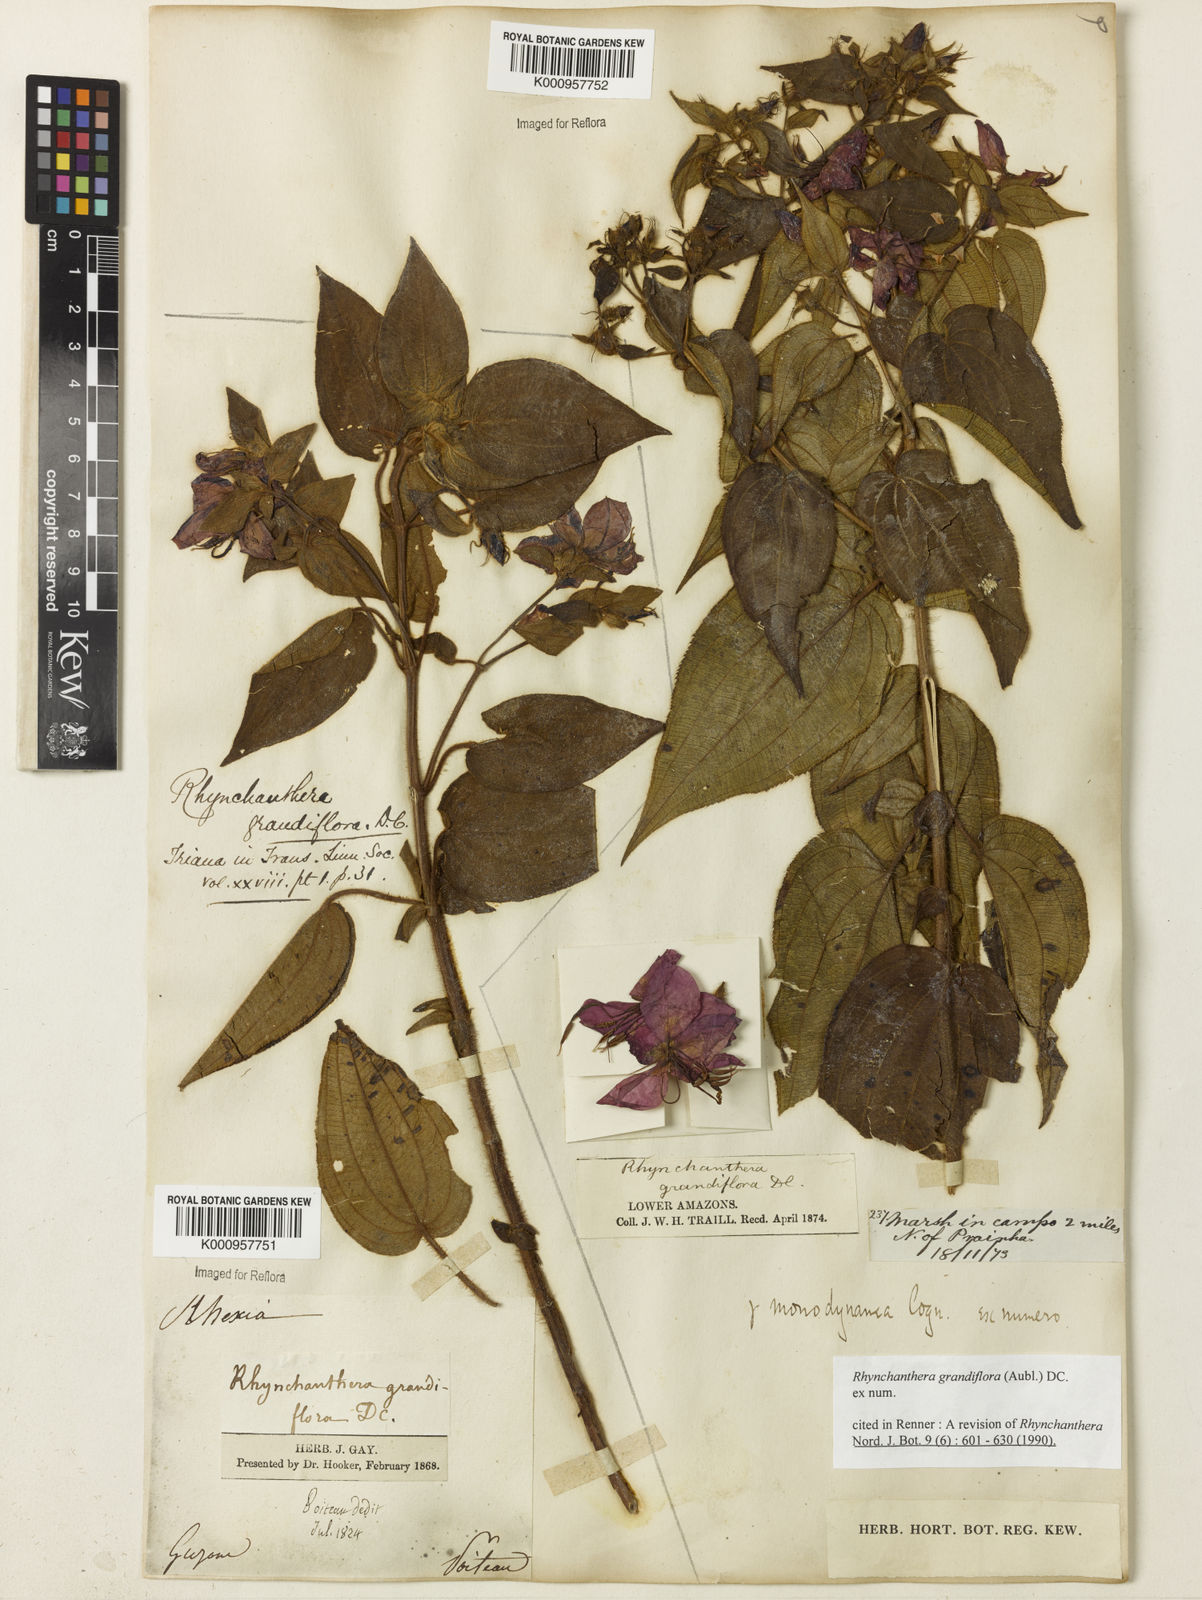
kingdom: Plantae
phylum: Tracheophyta
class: Magnoliopsida
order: Myrtales
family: Melastomataceae
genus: Rhynchanthera
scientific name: Rhynchanthera grandiflora
